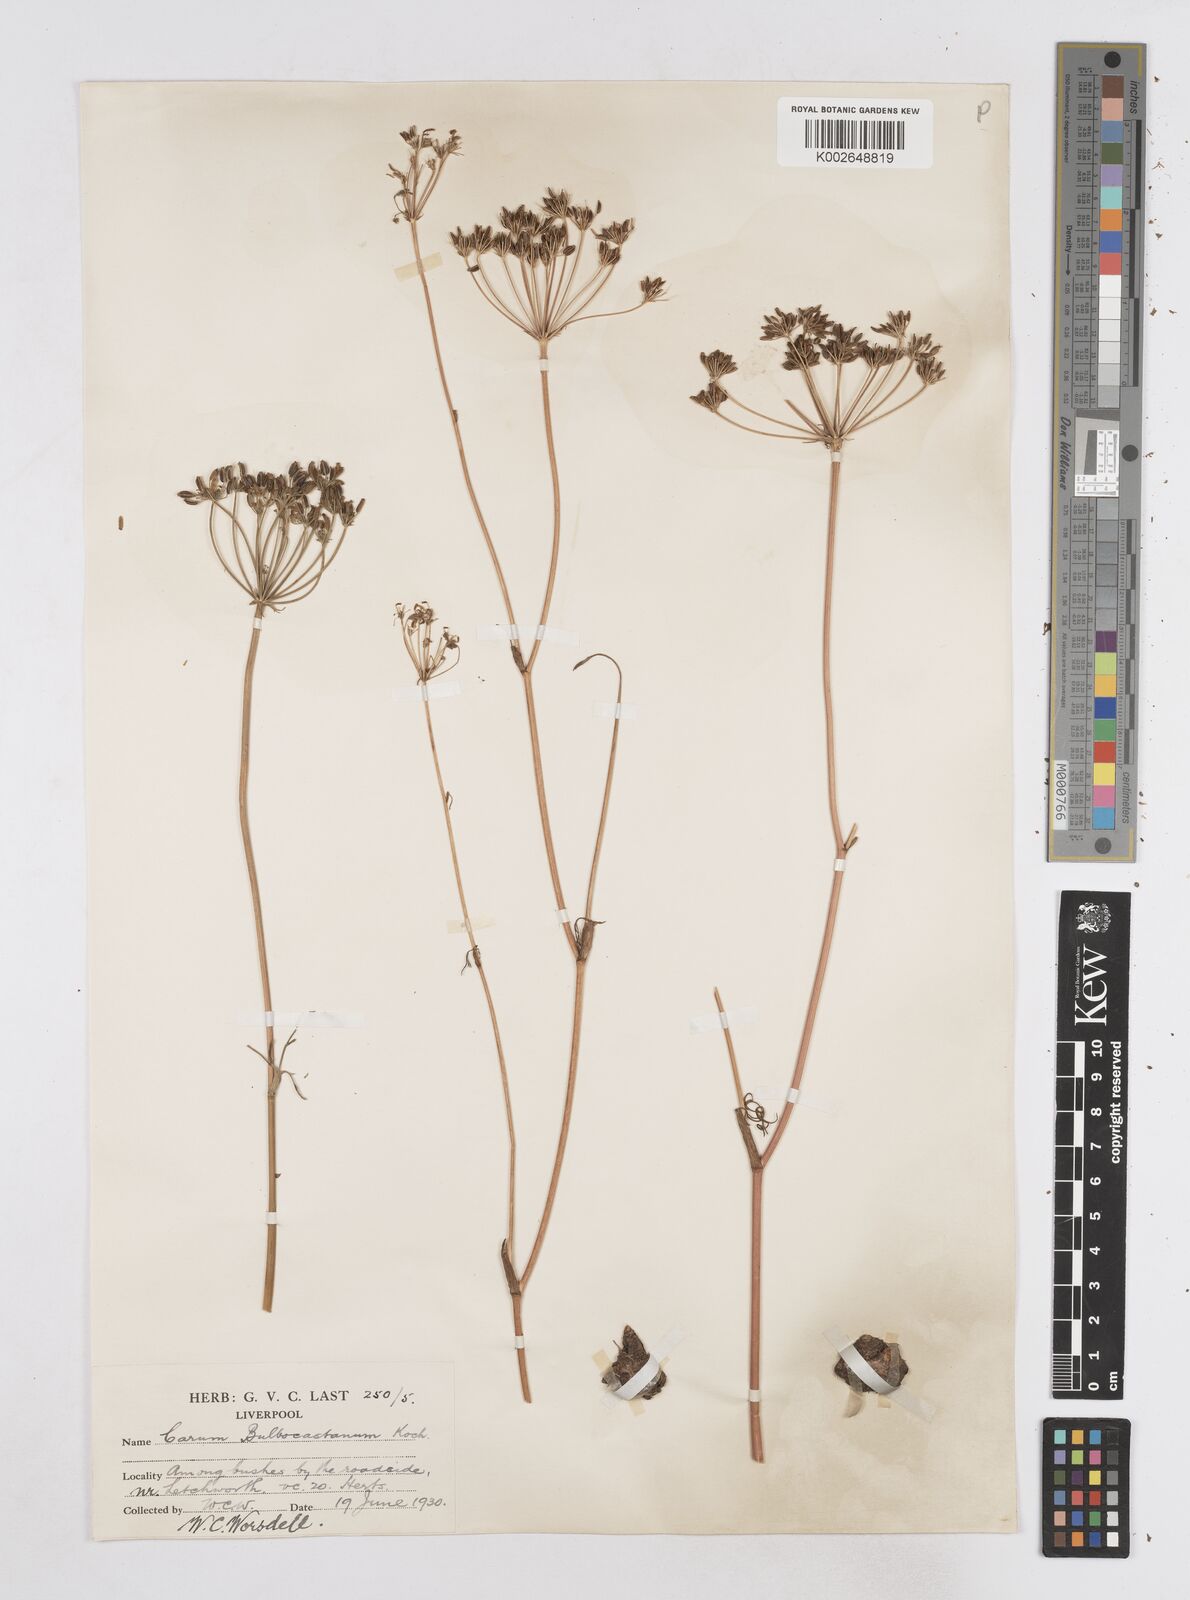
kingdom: Plantae
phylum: Tracheophyta
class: Magnoliopsida
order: Apiales
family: Apiaceae
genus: Bunium
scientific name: Bunium bulbocastanum
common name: Great pignut
